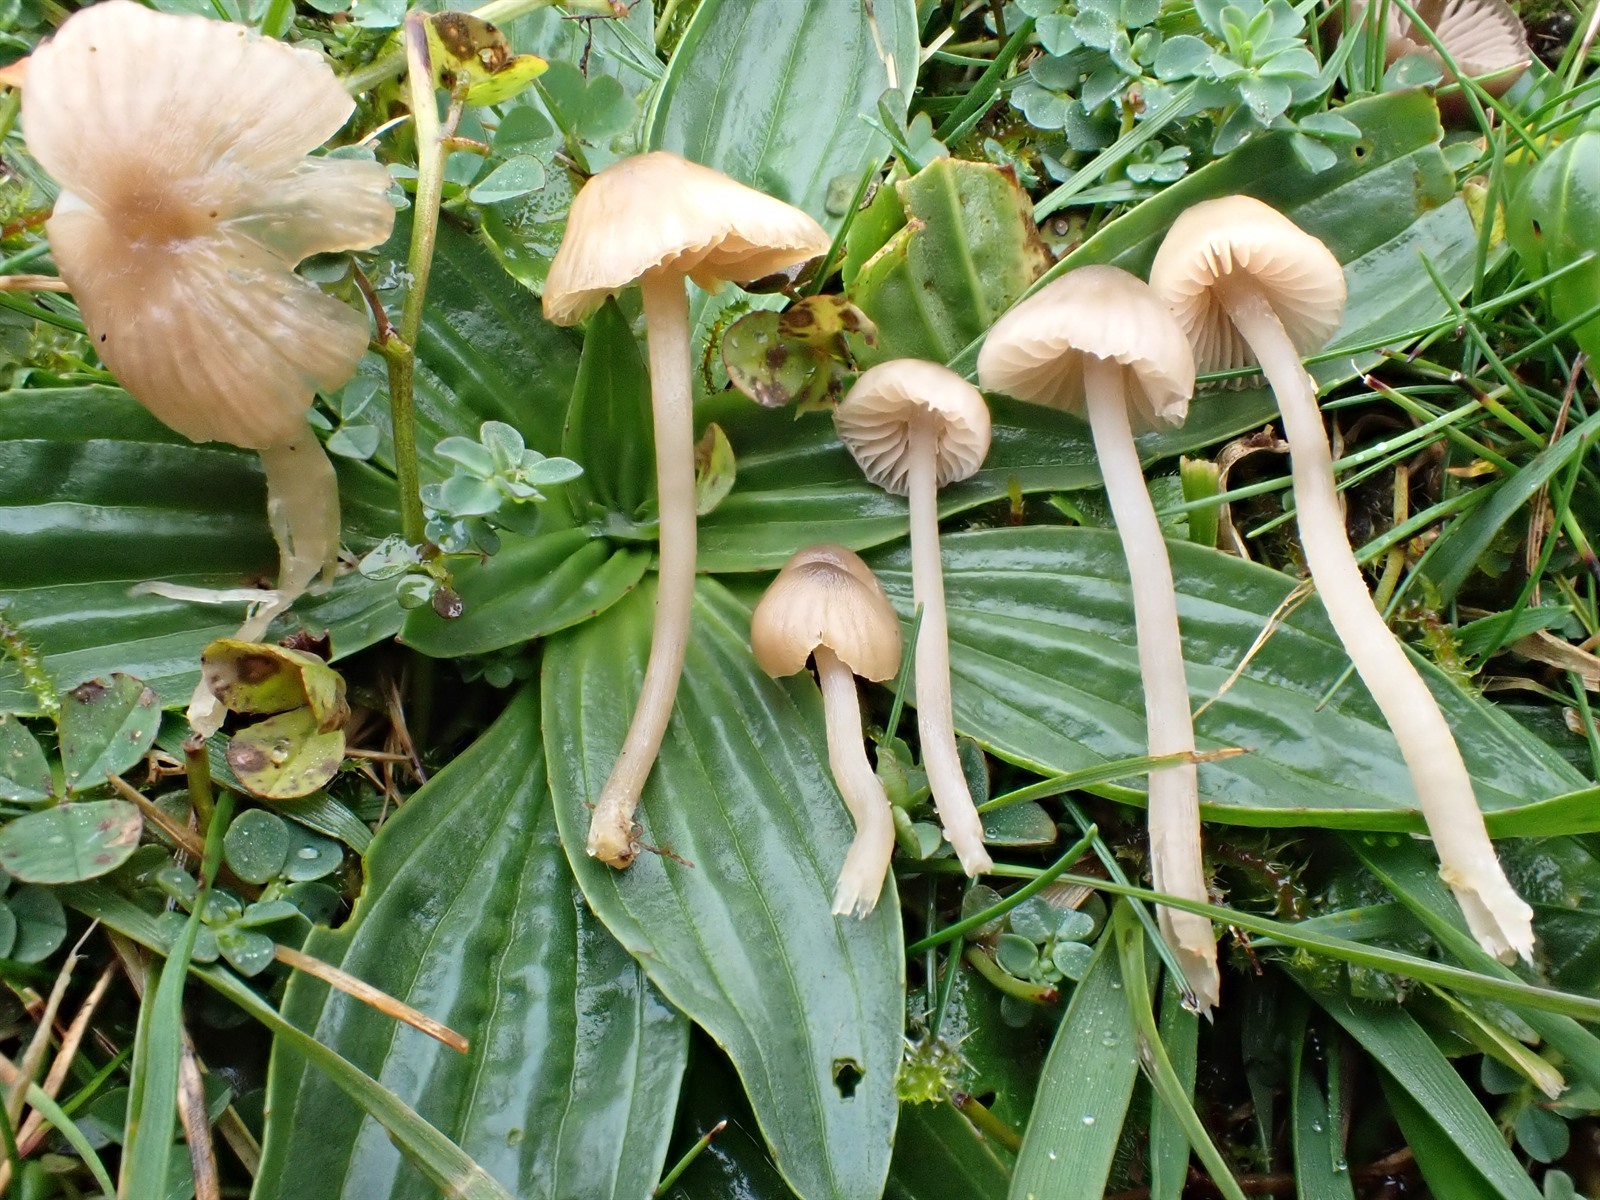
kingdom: Fungi
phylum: Basidiomycota
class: Agaricomycetes
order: Agaricales
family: Entolomataceae
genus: Entoloma
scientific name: Entoloma pentagonale
